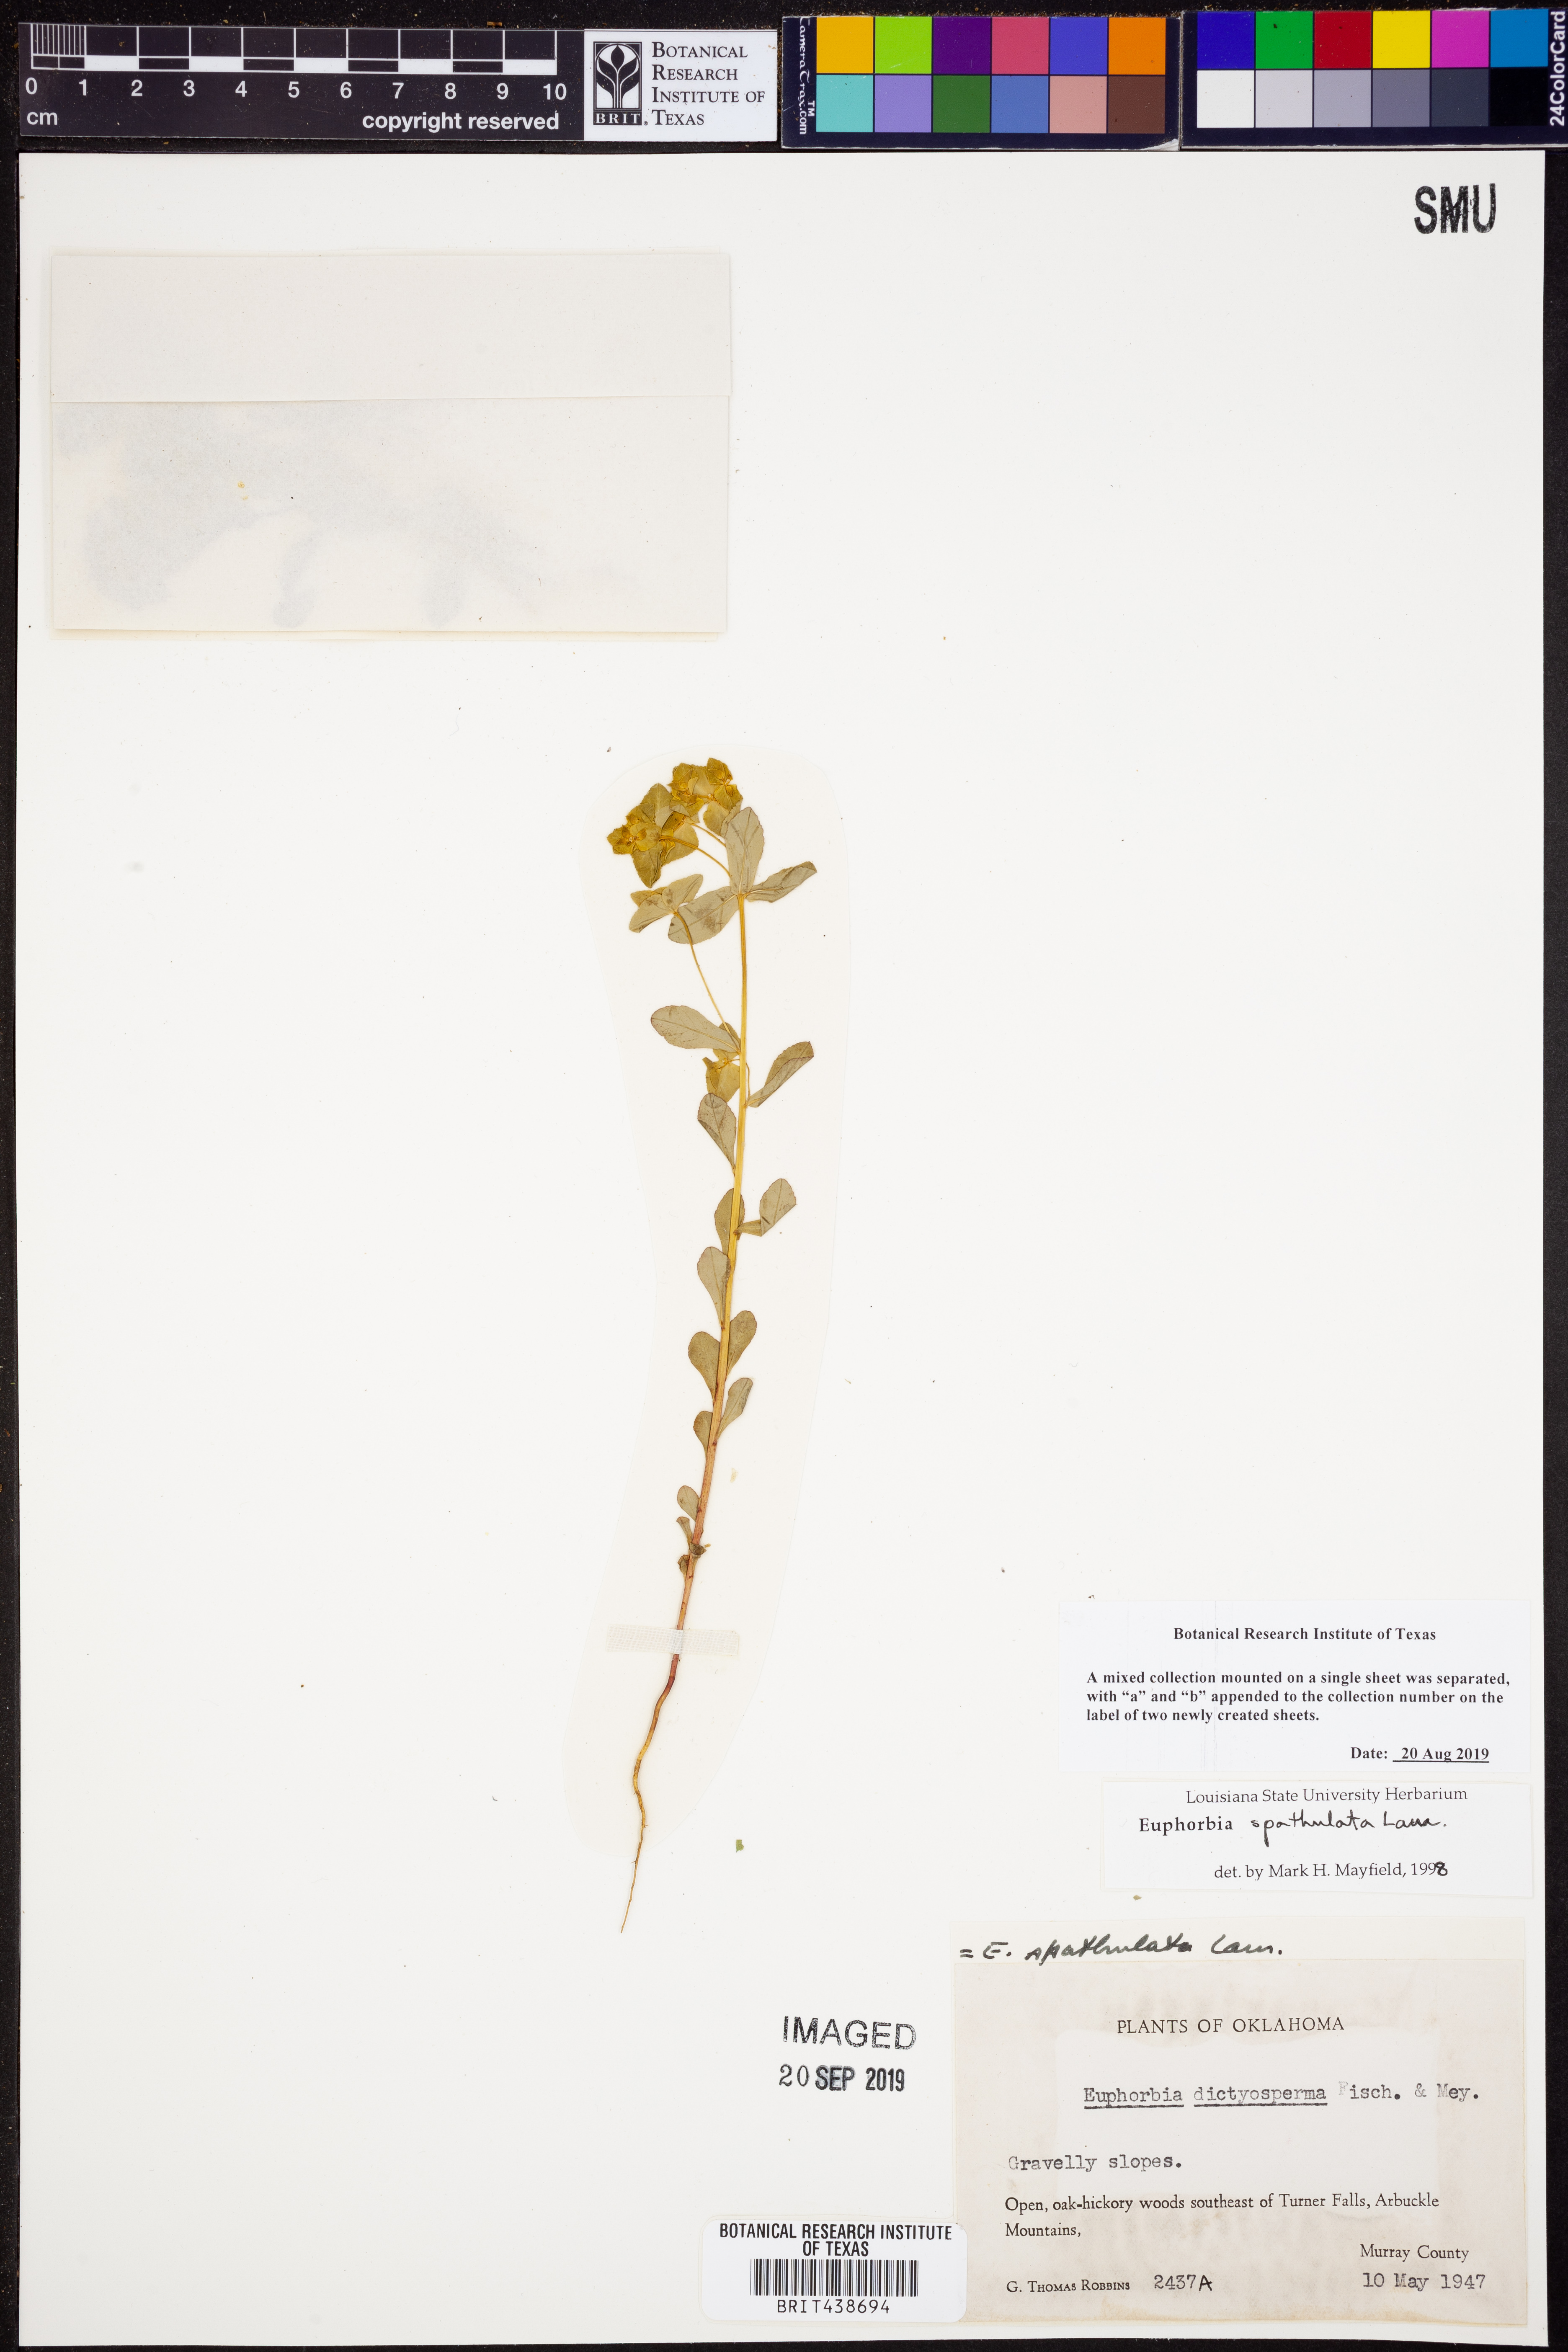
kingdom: Plantae
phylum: Tracheophyta
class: Magnoliopsida
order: Malpighiales
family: Euphorbiaceae
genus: Euphorbia
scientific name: Euphorbia spathulata
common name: Blunt spurge
